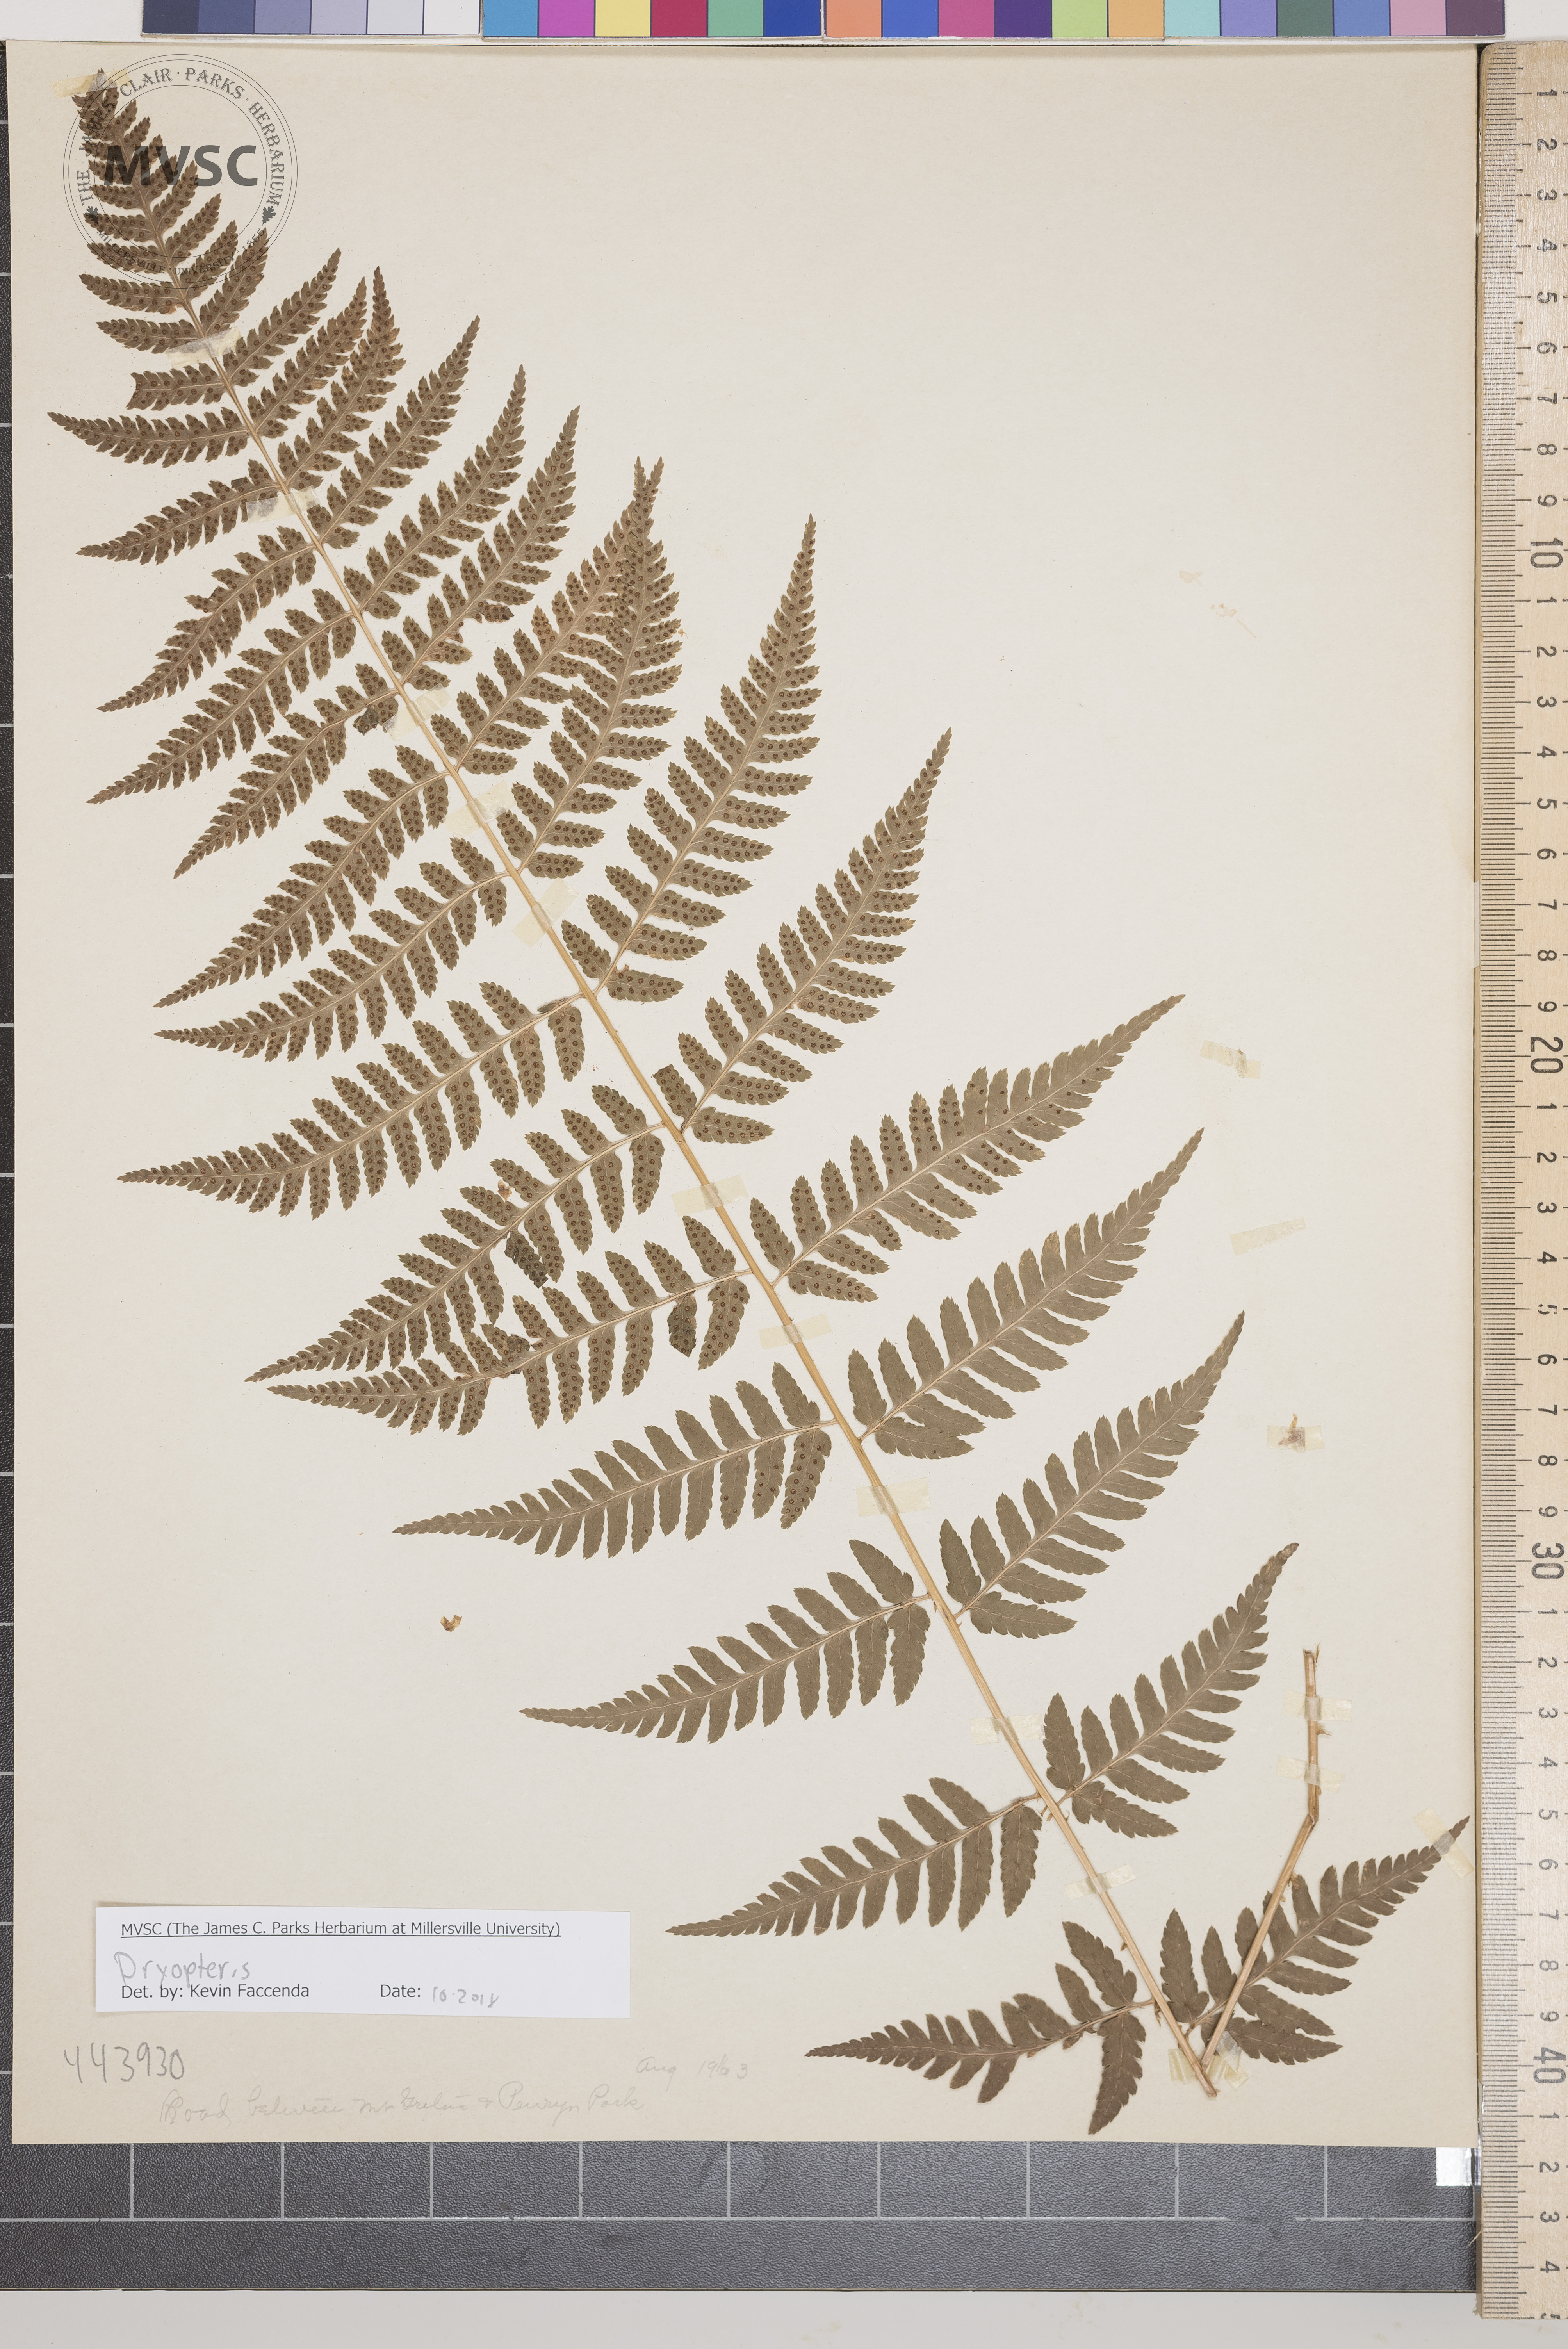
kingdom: Plantae
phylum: Tracheophyta
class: Polypodiopsida
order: Polypodiales
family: Dryopteridaceae
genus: Dryopteris
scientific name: Dryopteris
